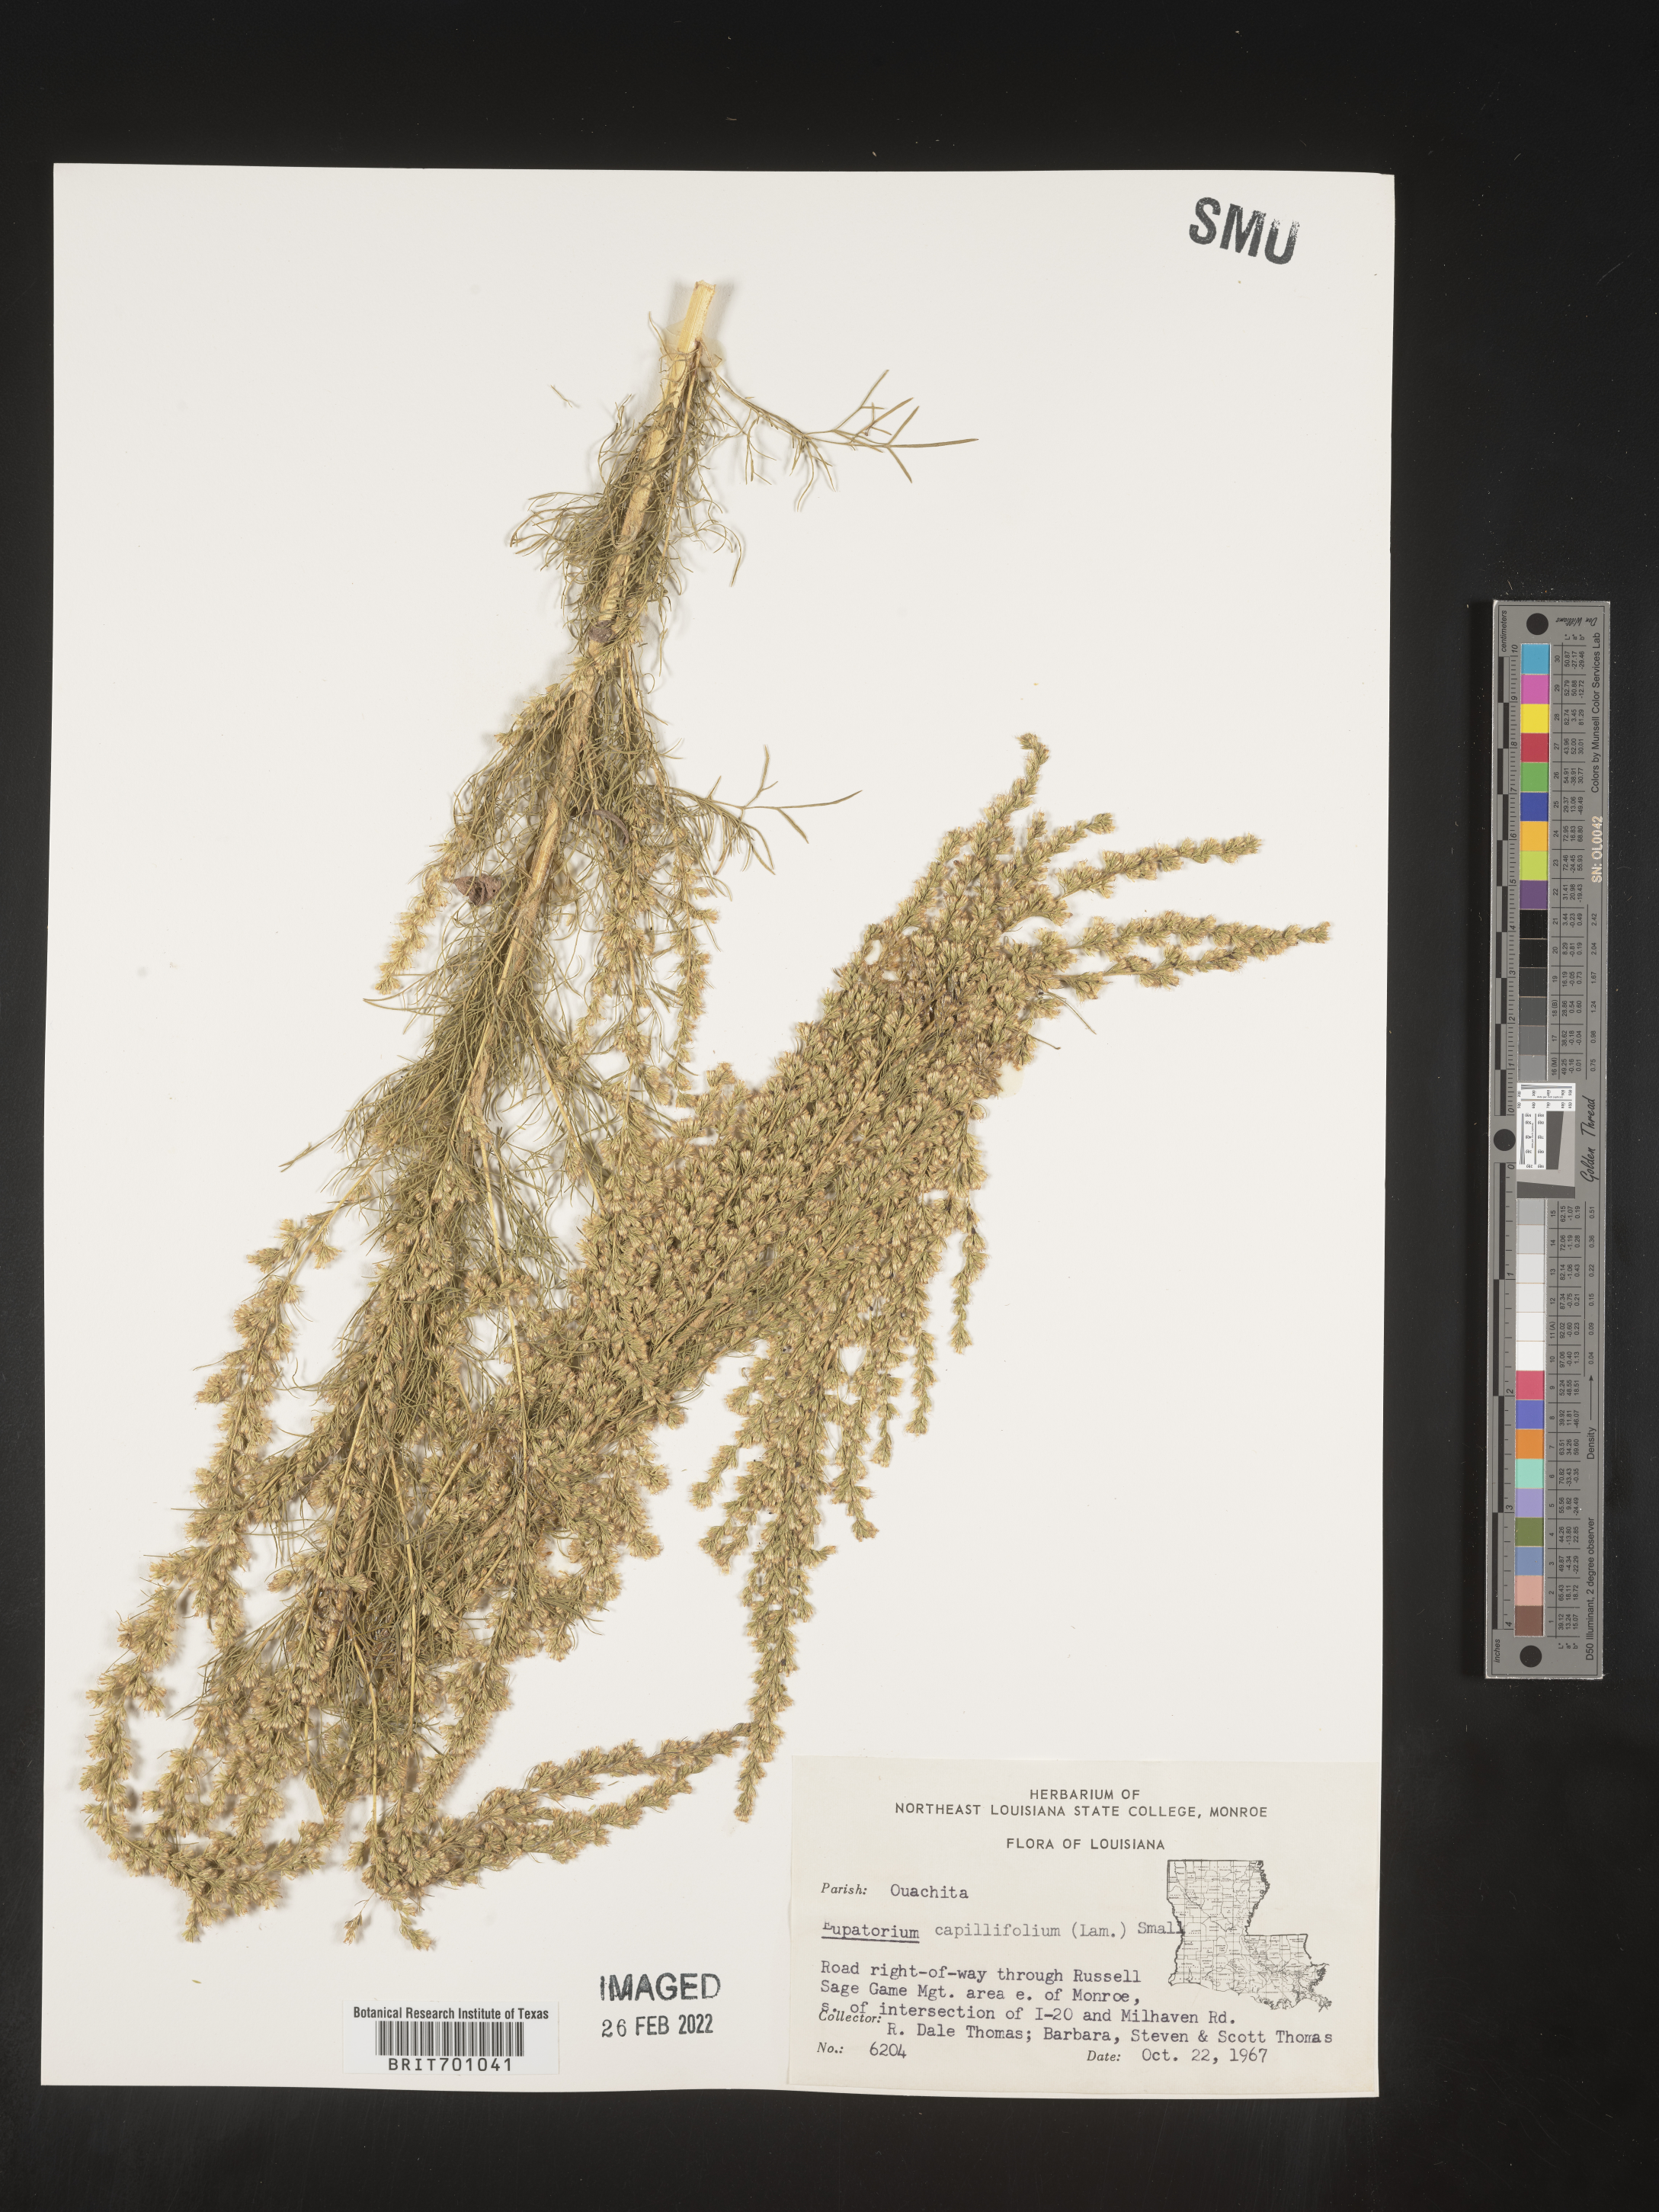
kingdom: Plantae
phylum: Tracheophyta
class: Magnoliopsida
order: Asterales
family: Asteraceae
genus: Eupatorium
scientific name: Eupatorium capillifolium
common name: Dog-fennel
